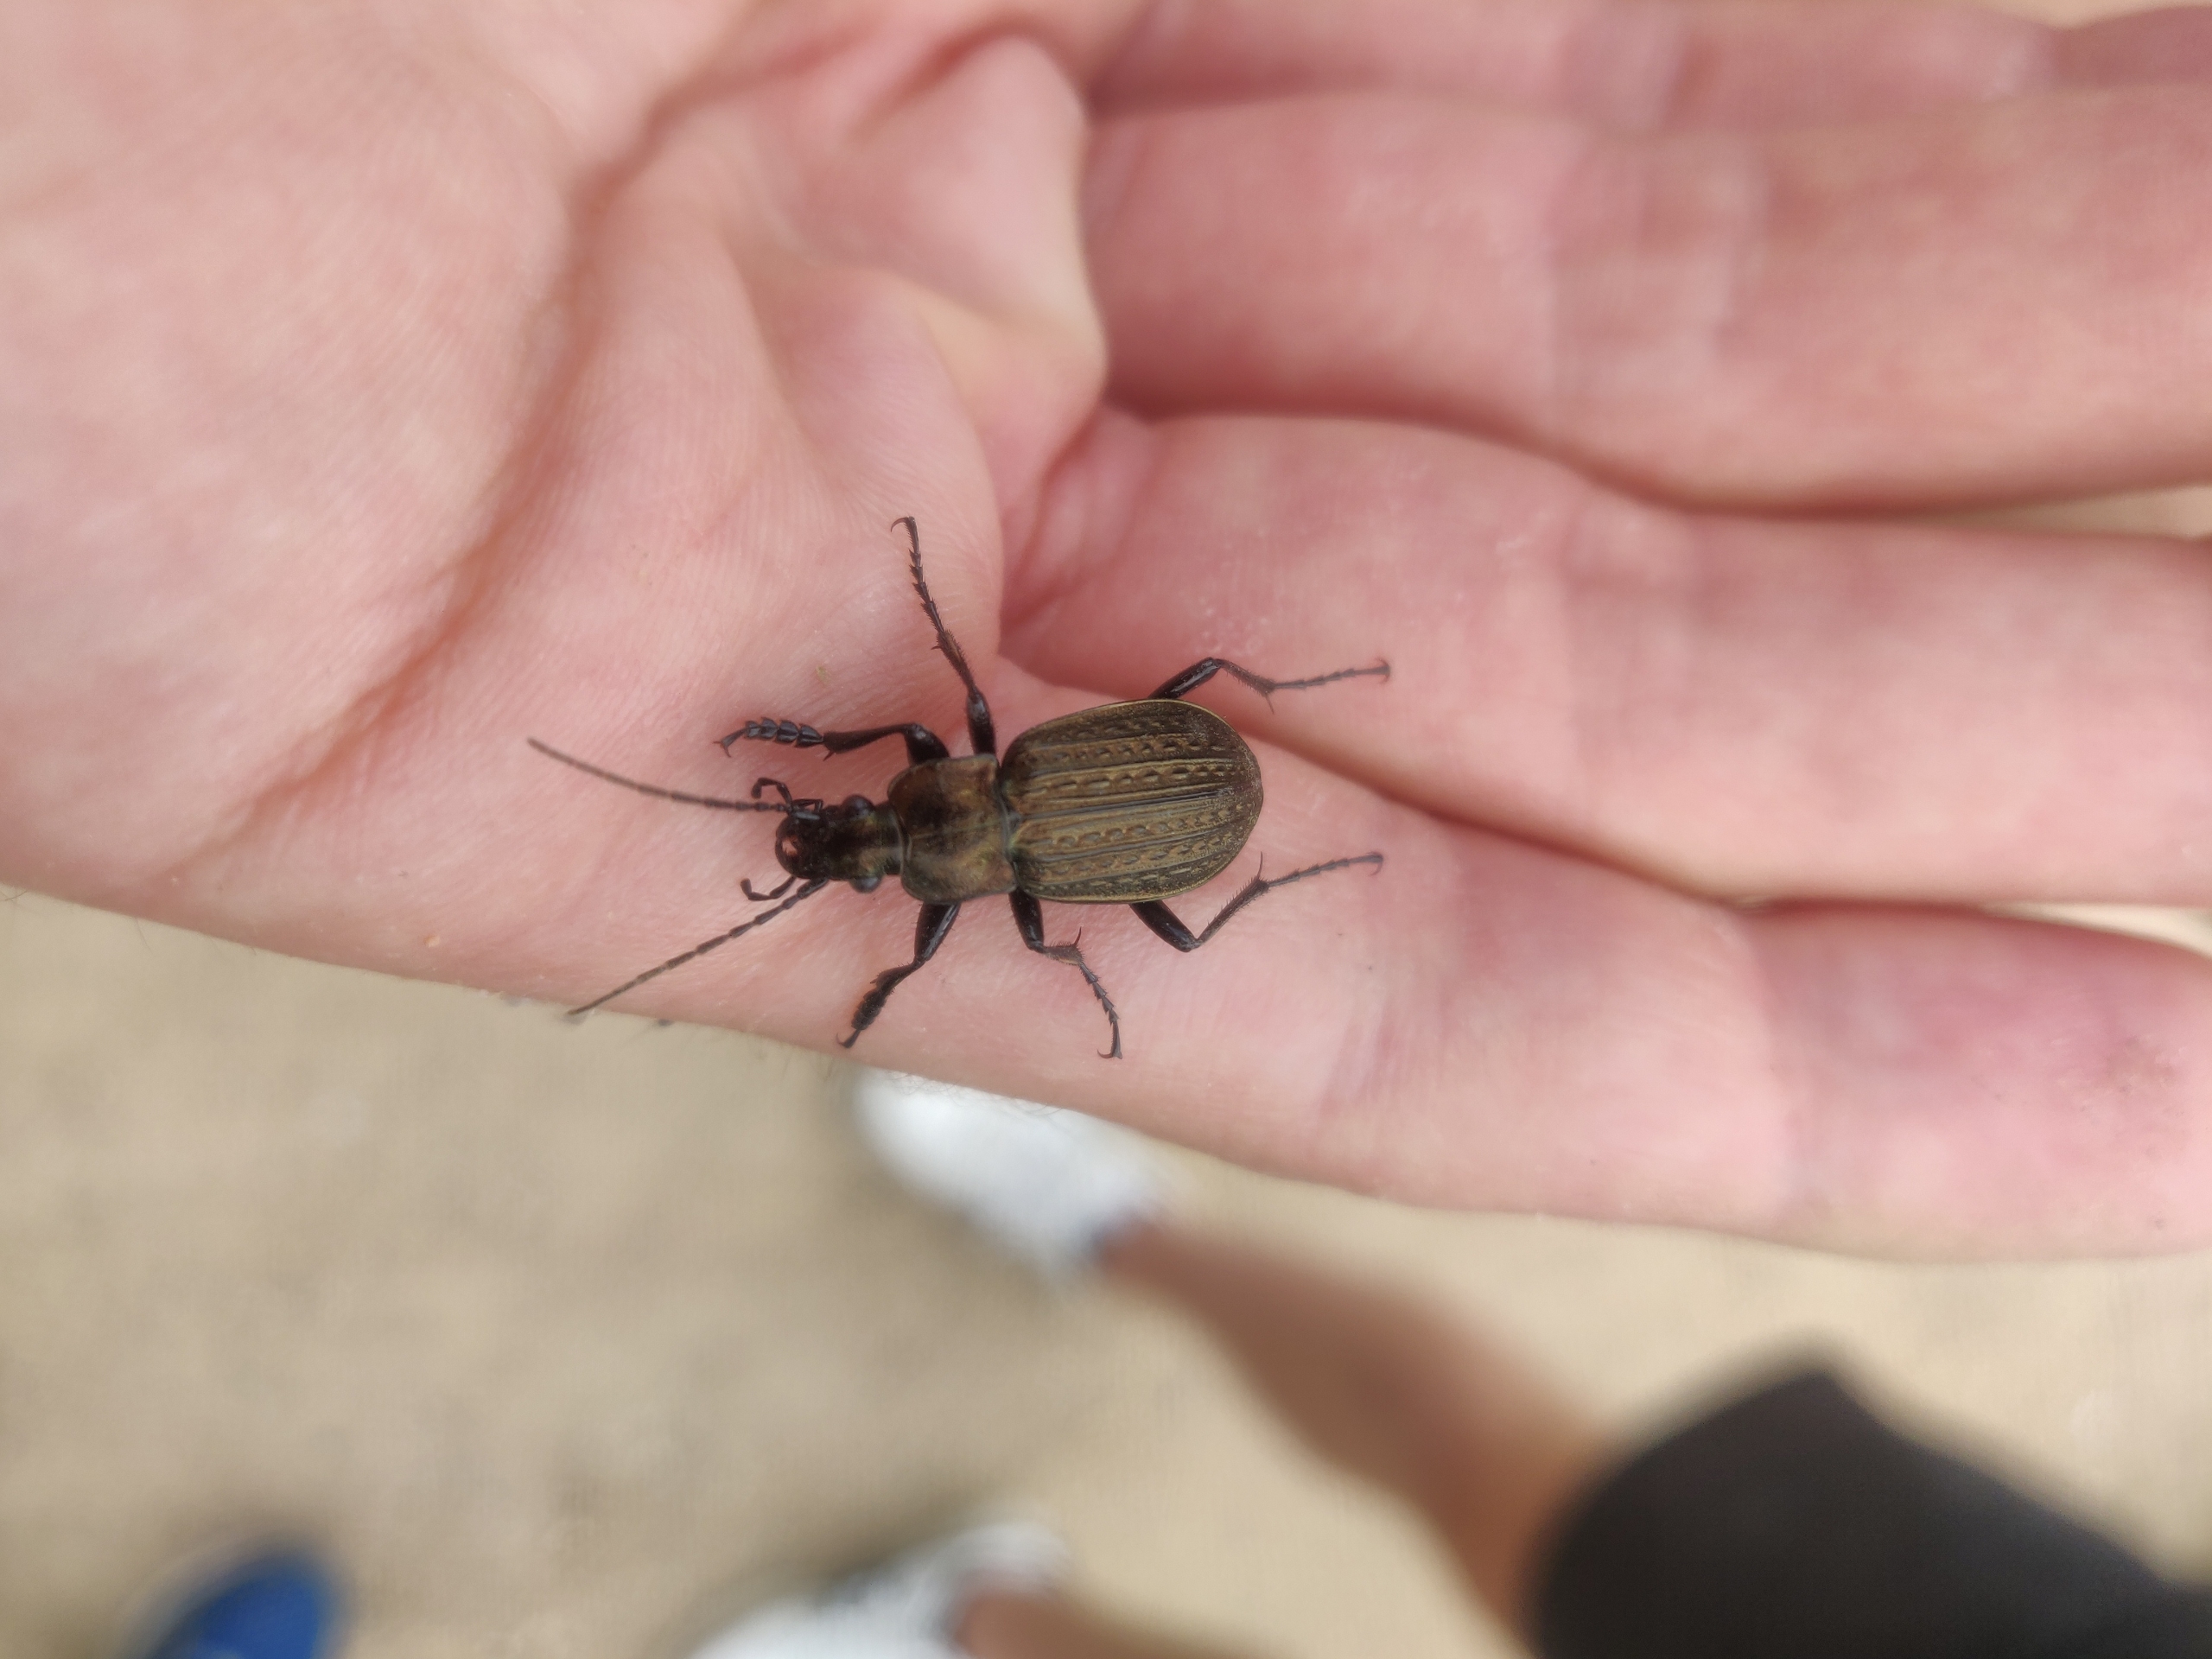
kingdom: Animalia
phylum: Arthropoda
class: Insecta
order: Coleoptera
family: Carabidae
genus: Carabus
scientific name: Carabus granulatus
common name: Kornet løber
